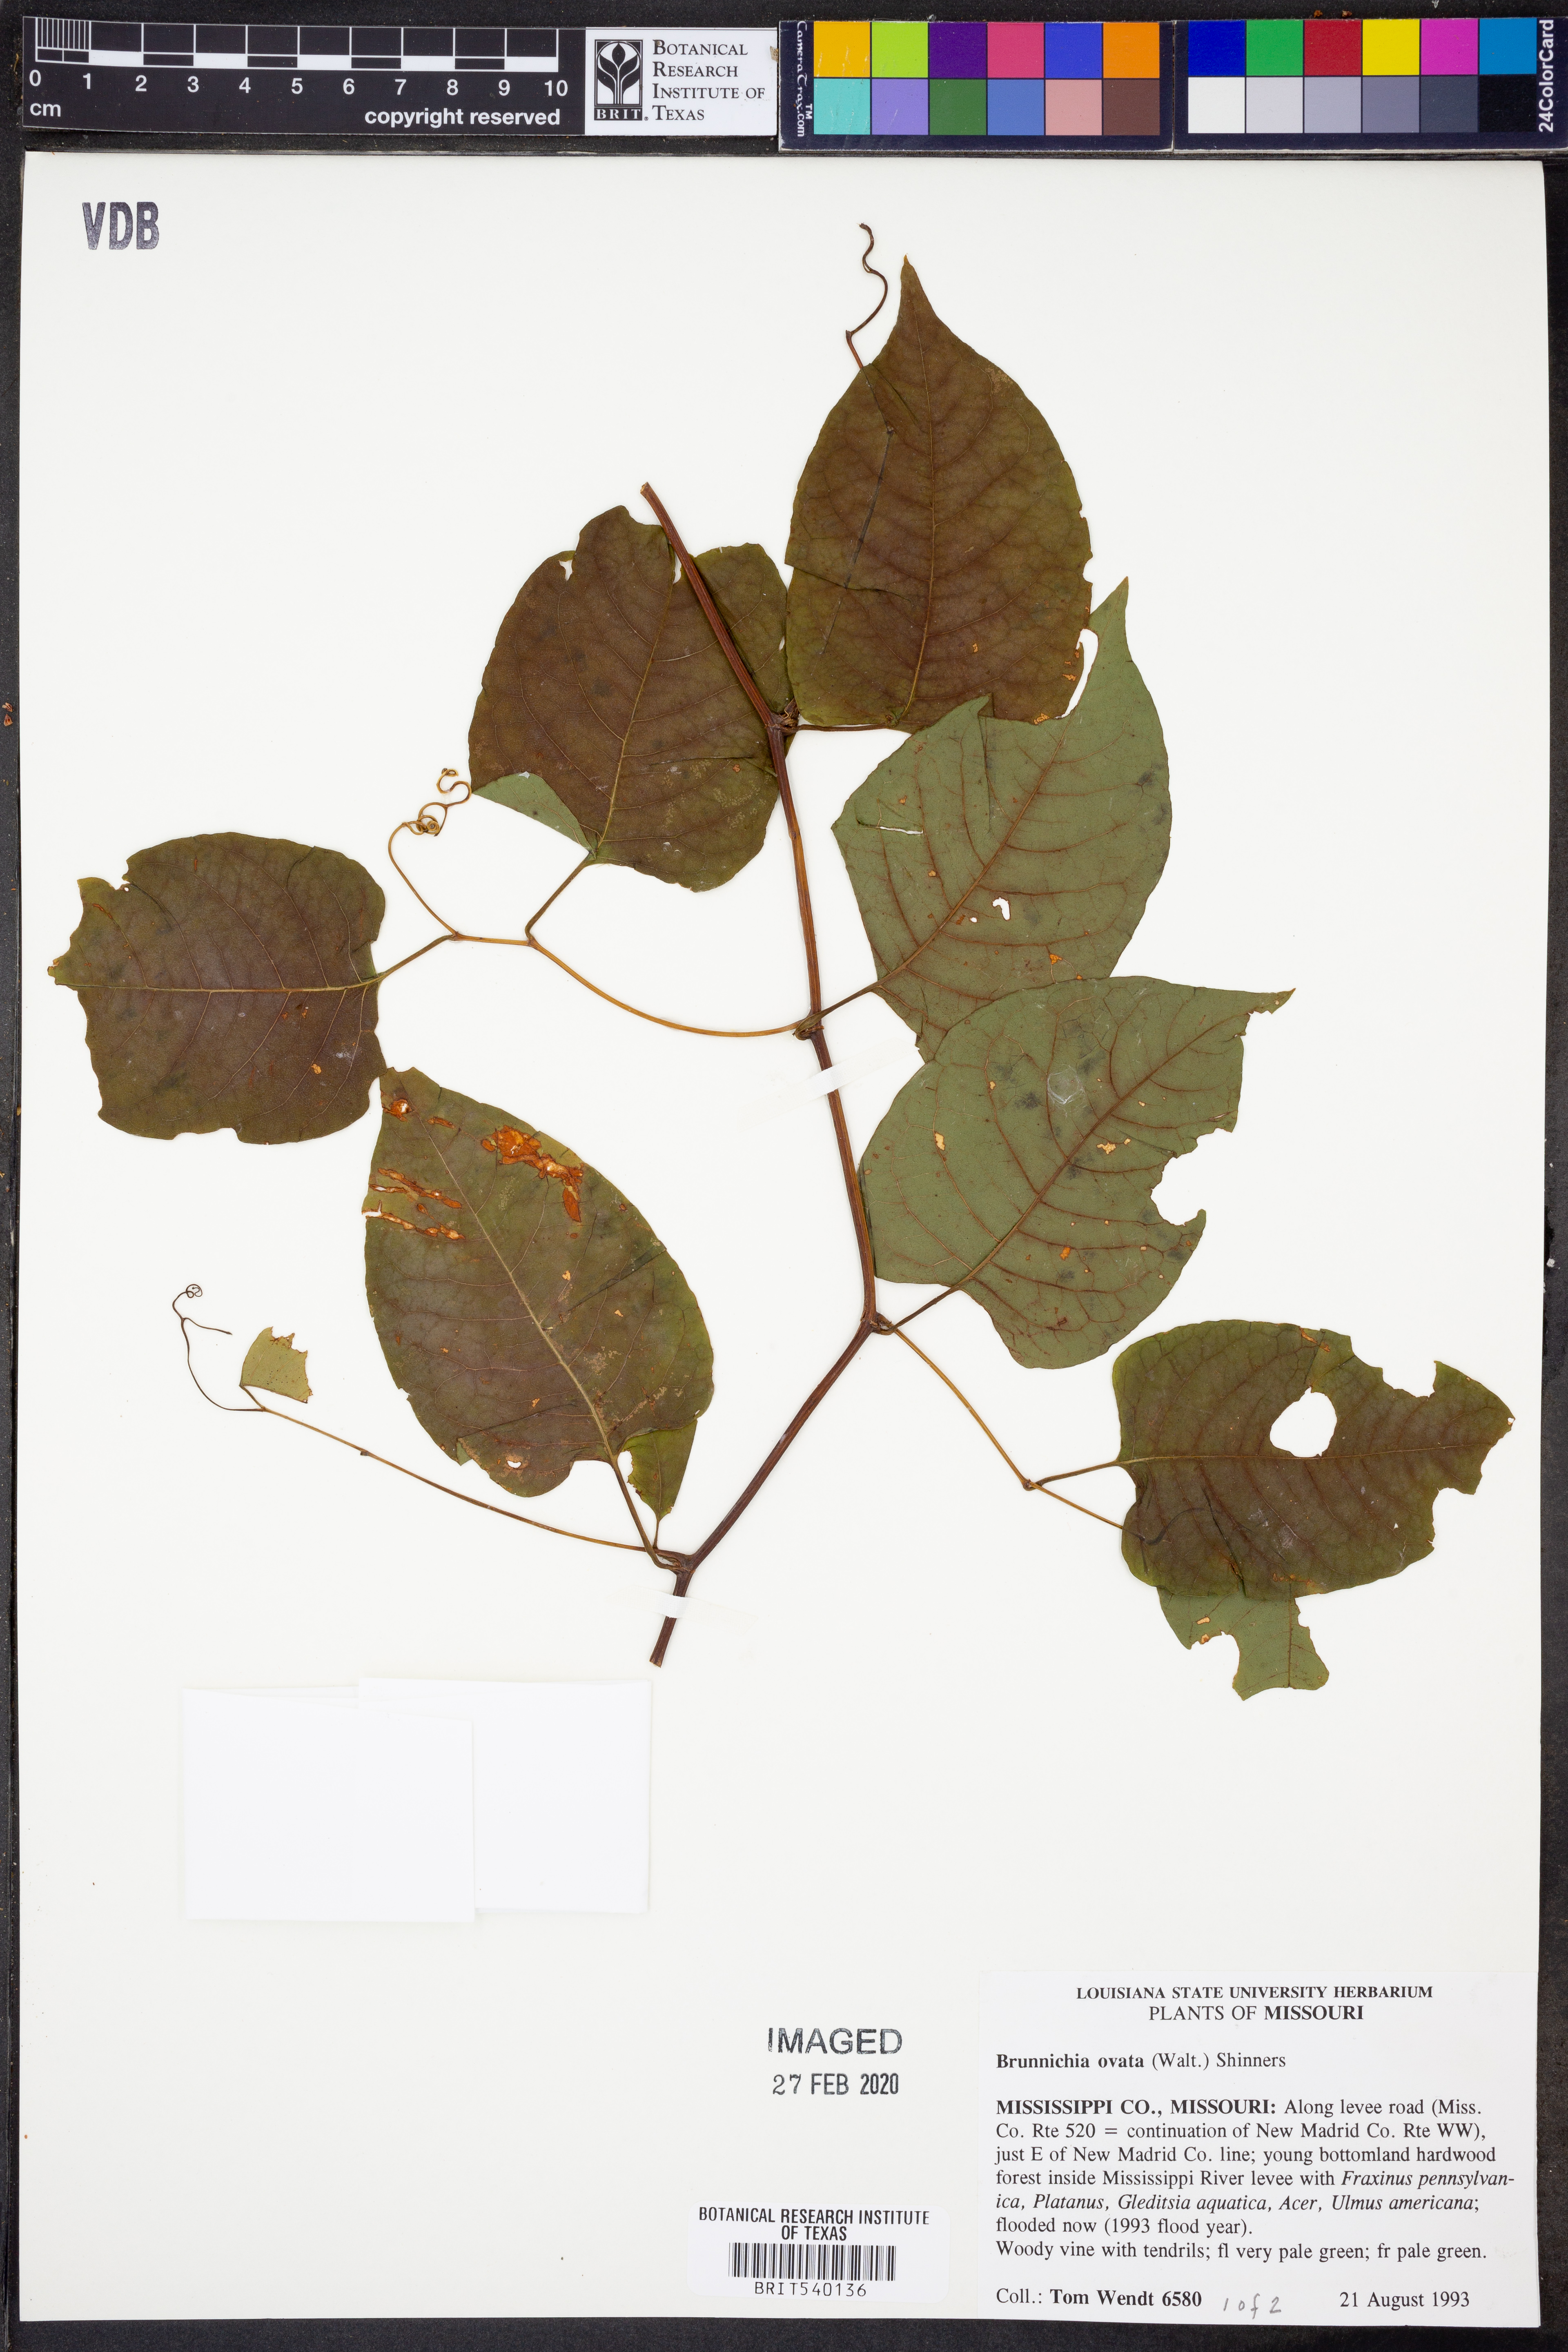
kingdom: Plantae
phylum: Tracheophyta
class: Magnoliopsida
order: Caryophyllales
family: Polygonaceae
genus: Brunnichia
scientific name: Brunnichia ovata
